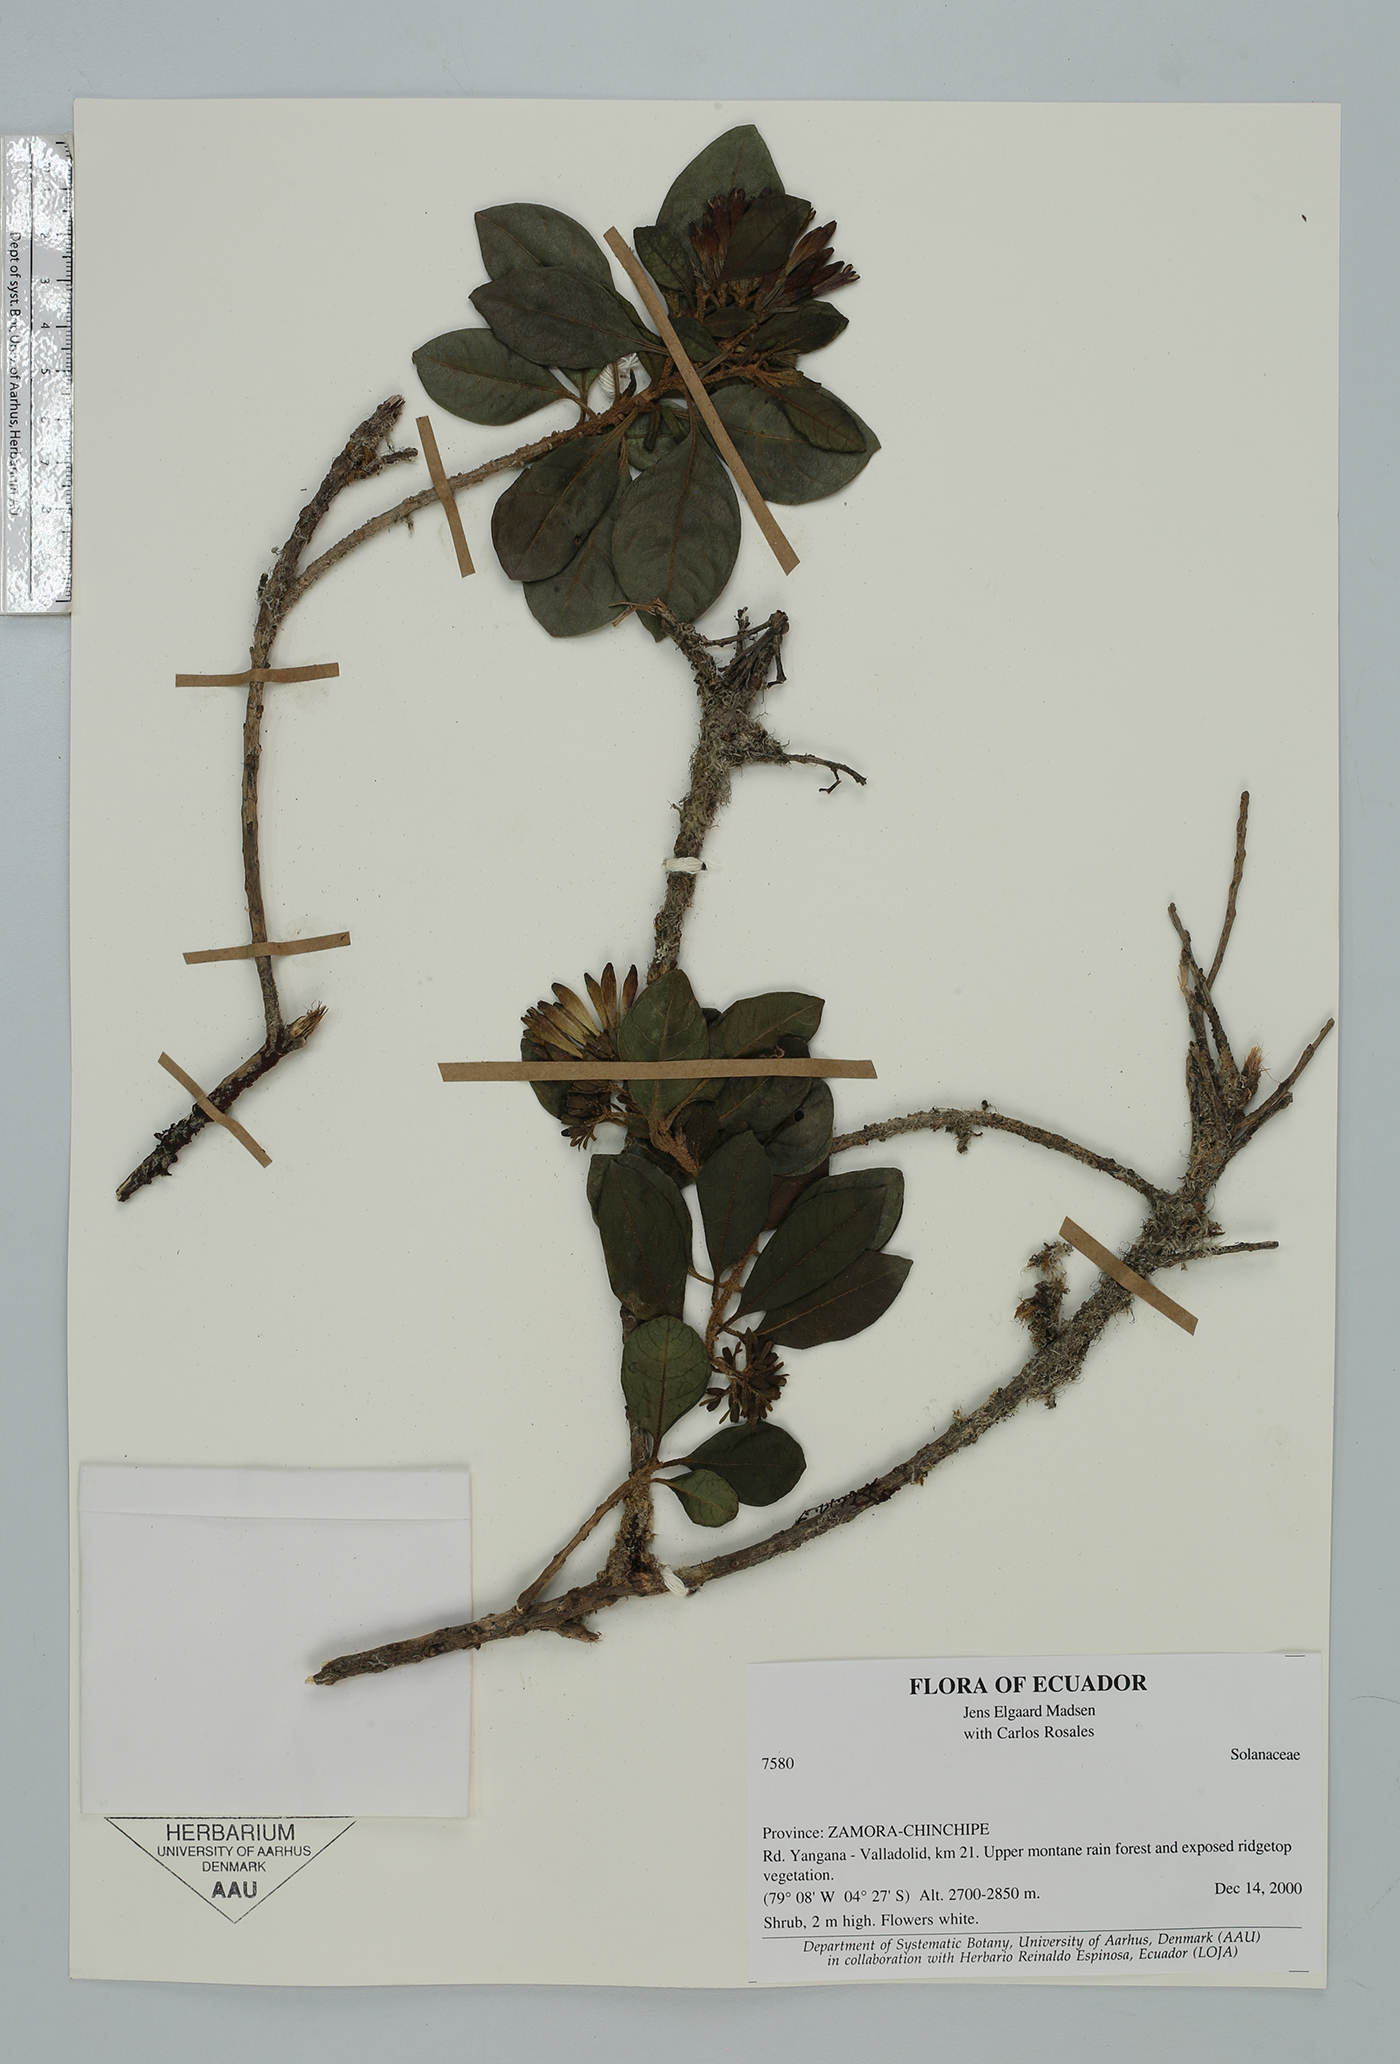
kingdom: Plantae
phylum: Tracheophyta
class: Magnoliopsida
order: Solanales
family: Solanaceae
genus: Saracha
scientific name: Saracha quitoensis
